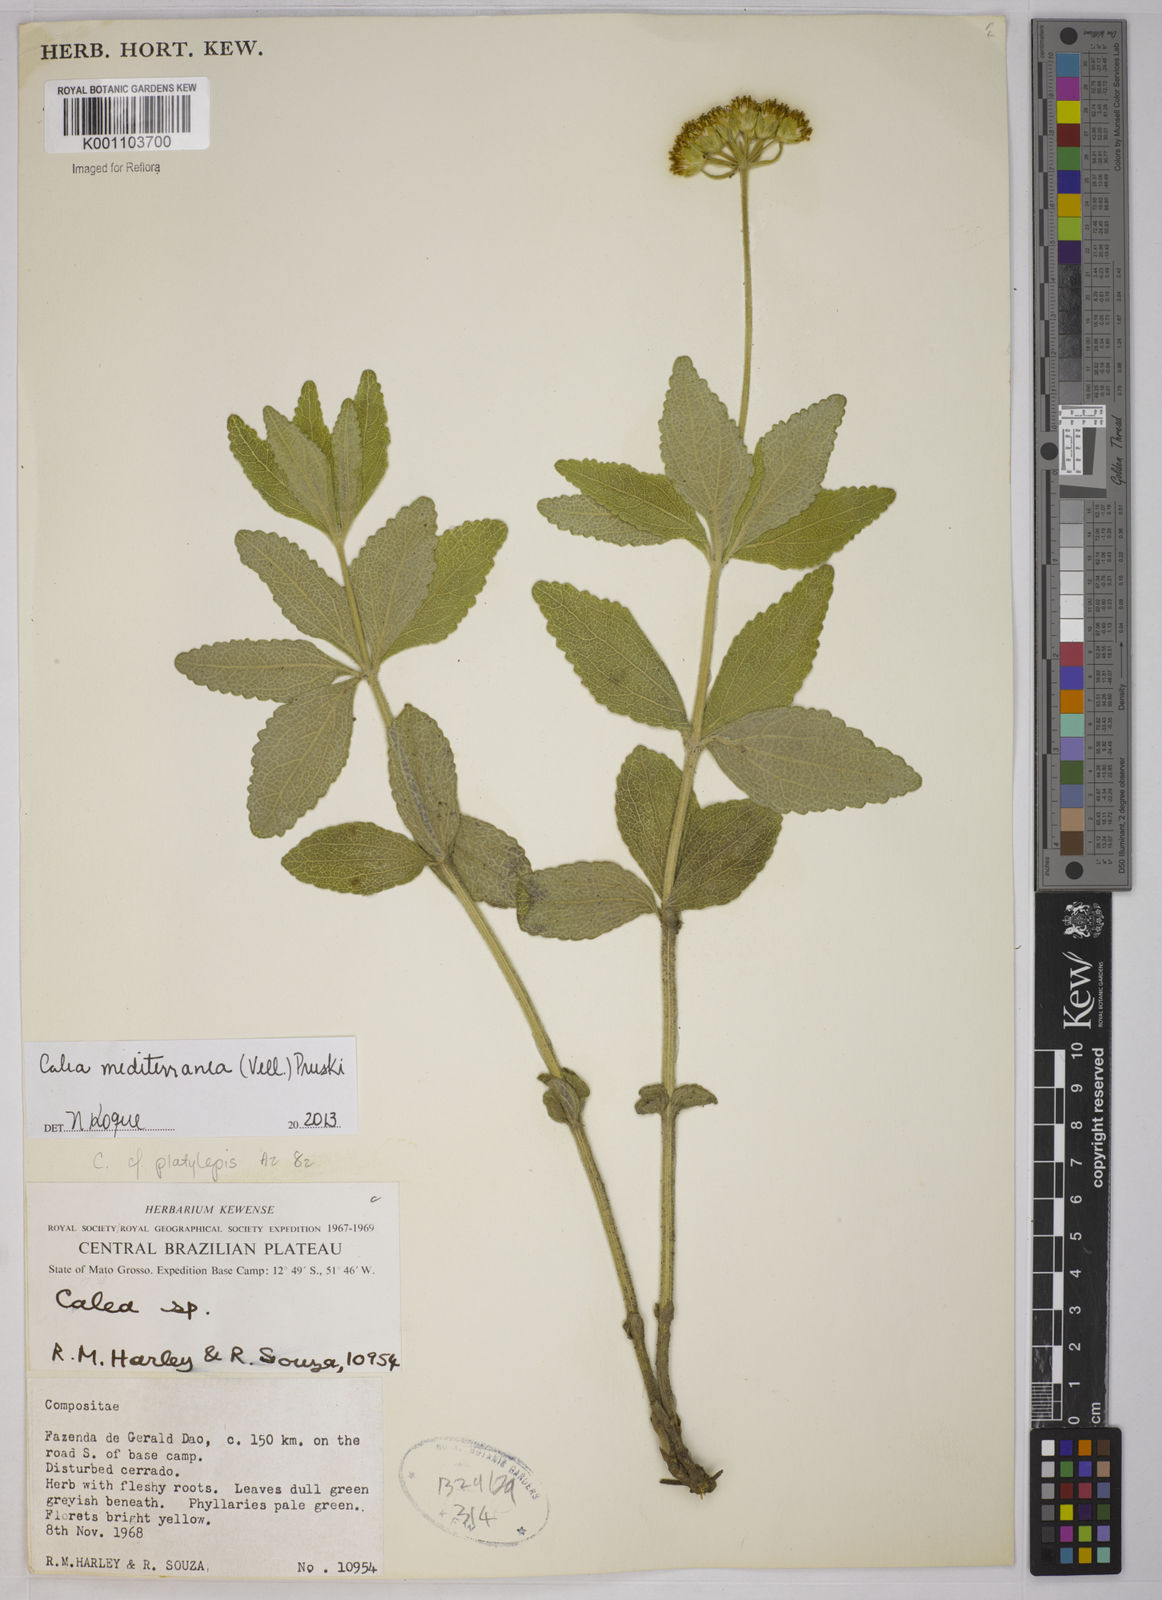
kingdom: Plantae
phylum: Tracheophyta
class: Magnoliopsida
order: Asterales
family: Asteraceae
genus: Calea
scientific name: Calea mediterranea
